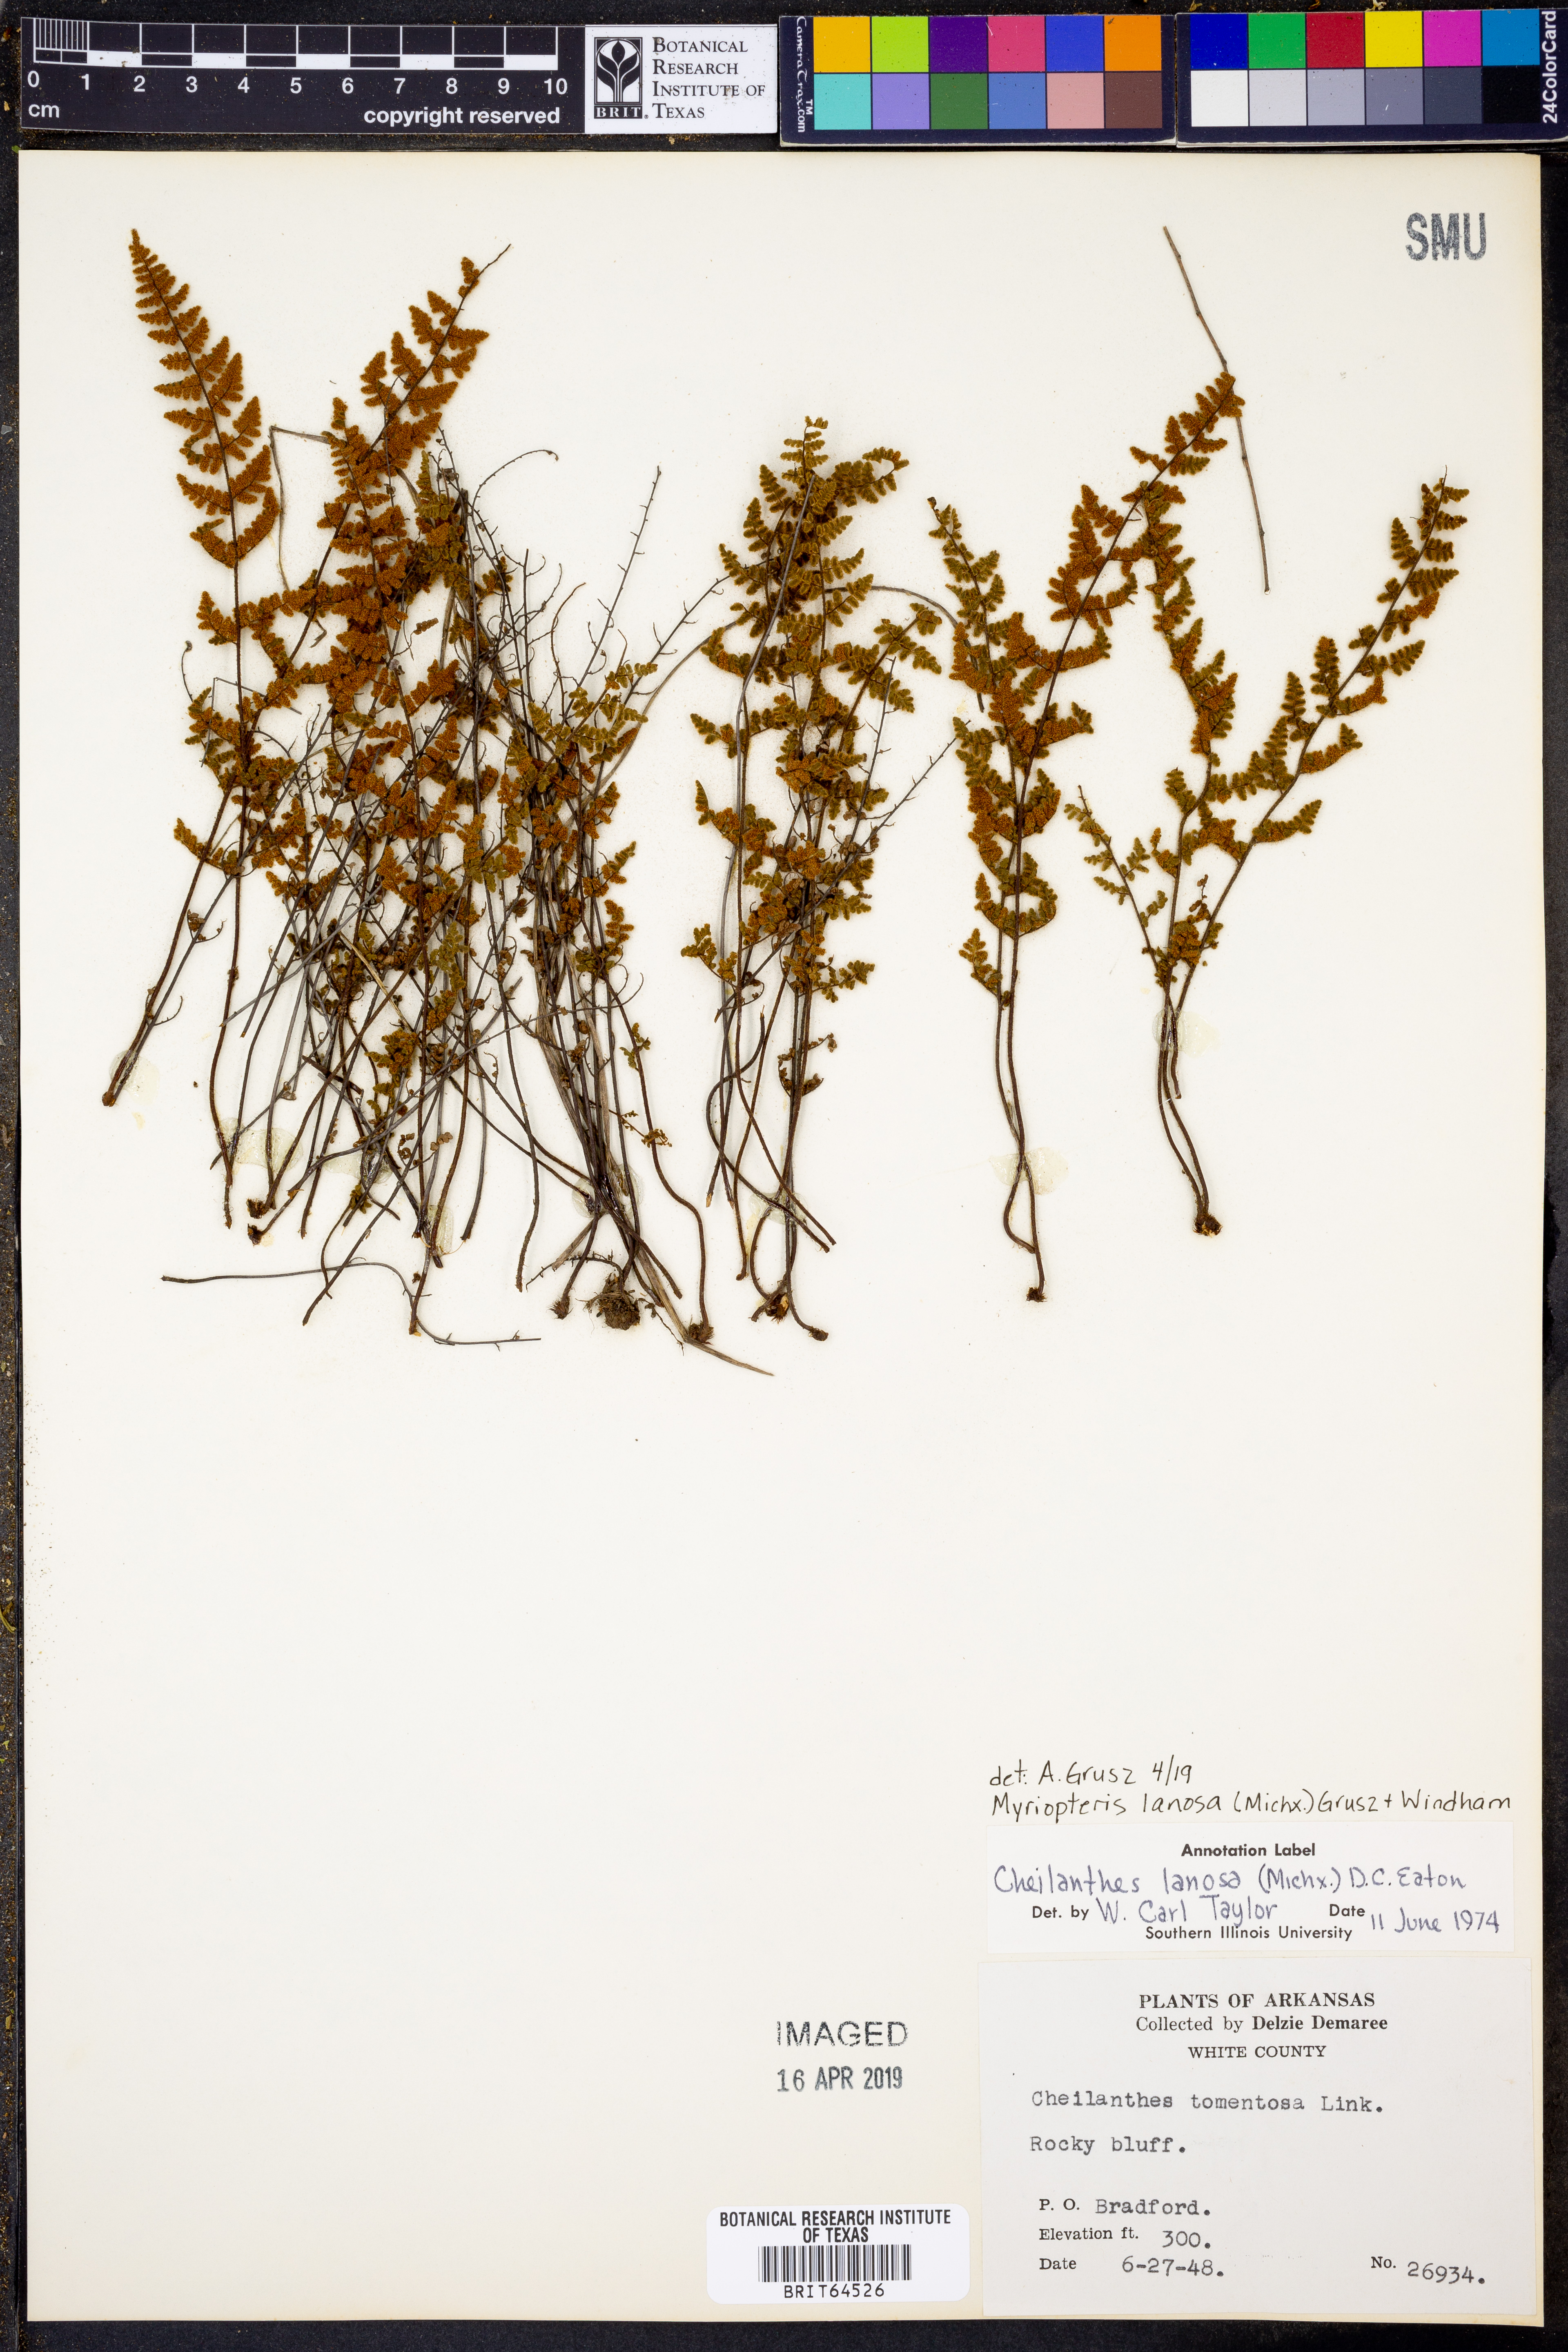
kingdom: Plantae
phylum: Tracheophyta
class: Polypodiopsida
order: Polypodiales
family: Pteridaceae
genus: Myriopteris
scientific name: Myriopteris lanosa
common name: Hairy lip fern
